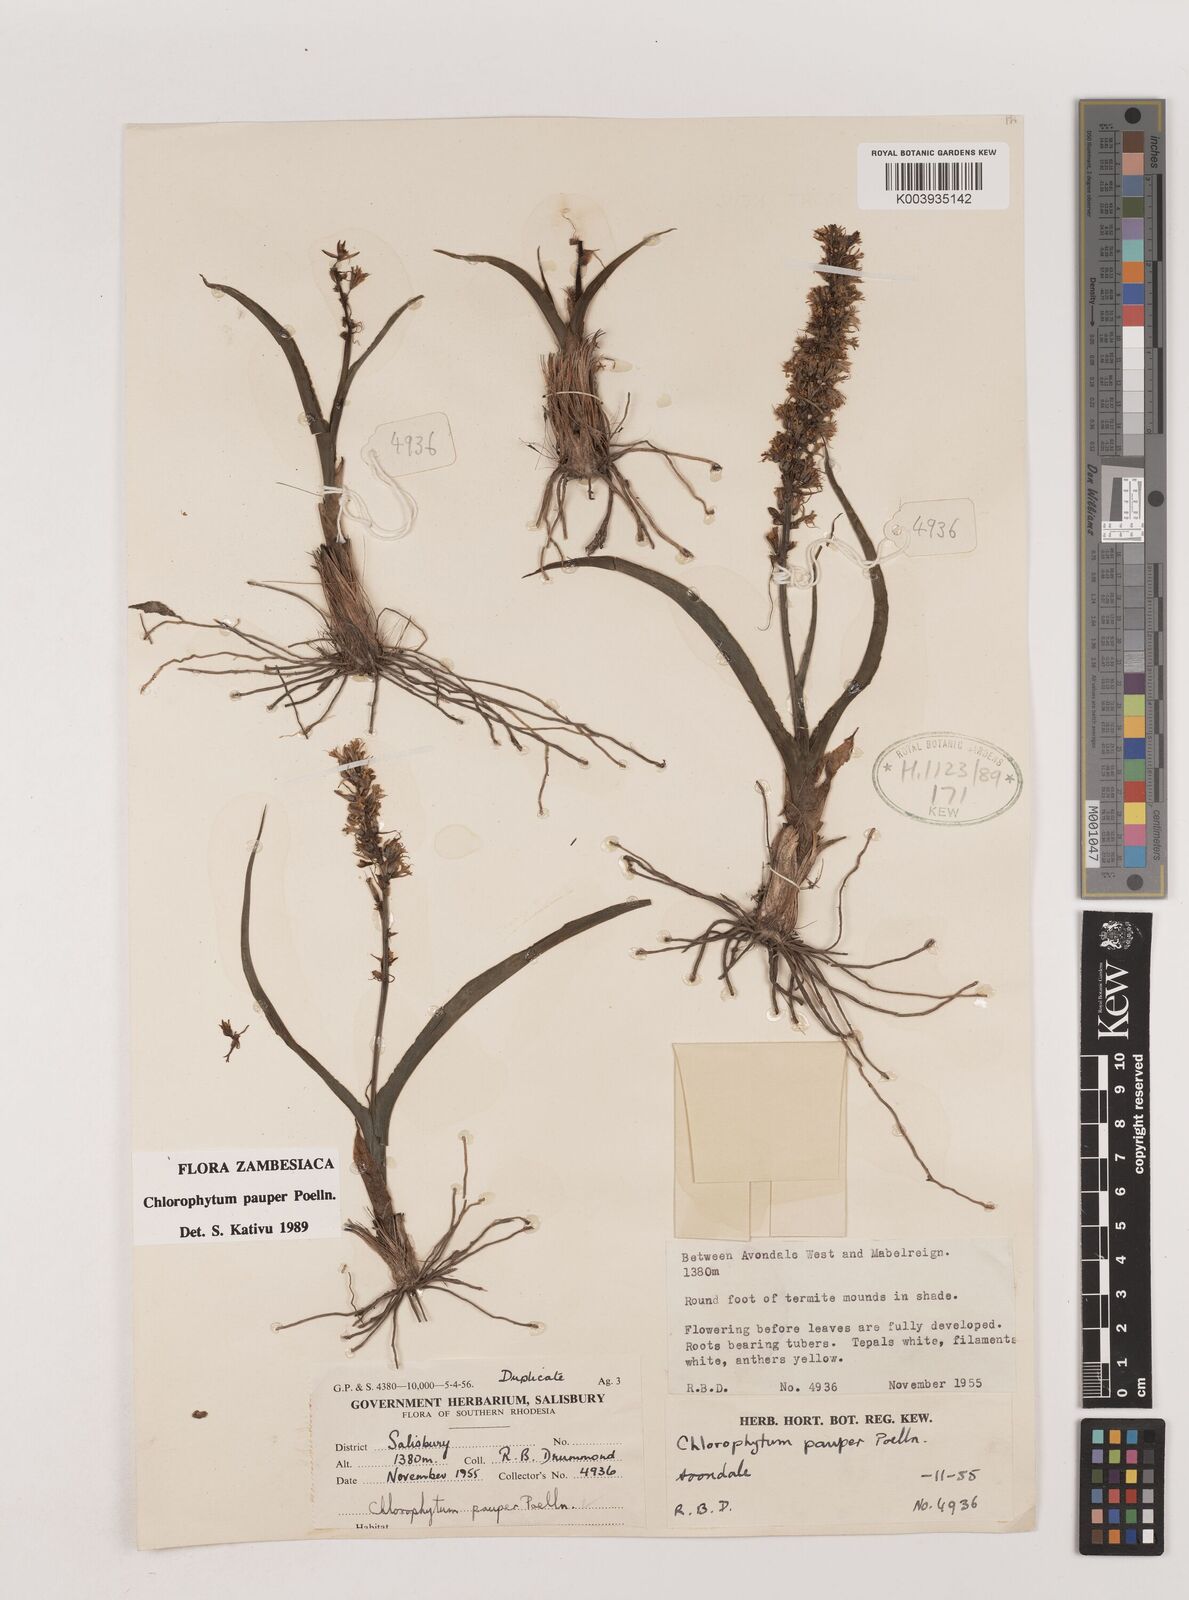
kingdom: Plantae
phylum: Tracheophyta
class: Liliopsida
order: Asparagales
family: Asparagaceae
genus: Chlorophytum
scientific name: Chlorophytum pauper
